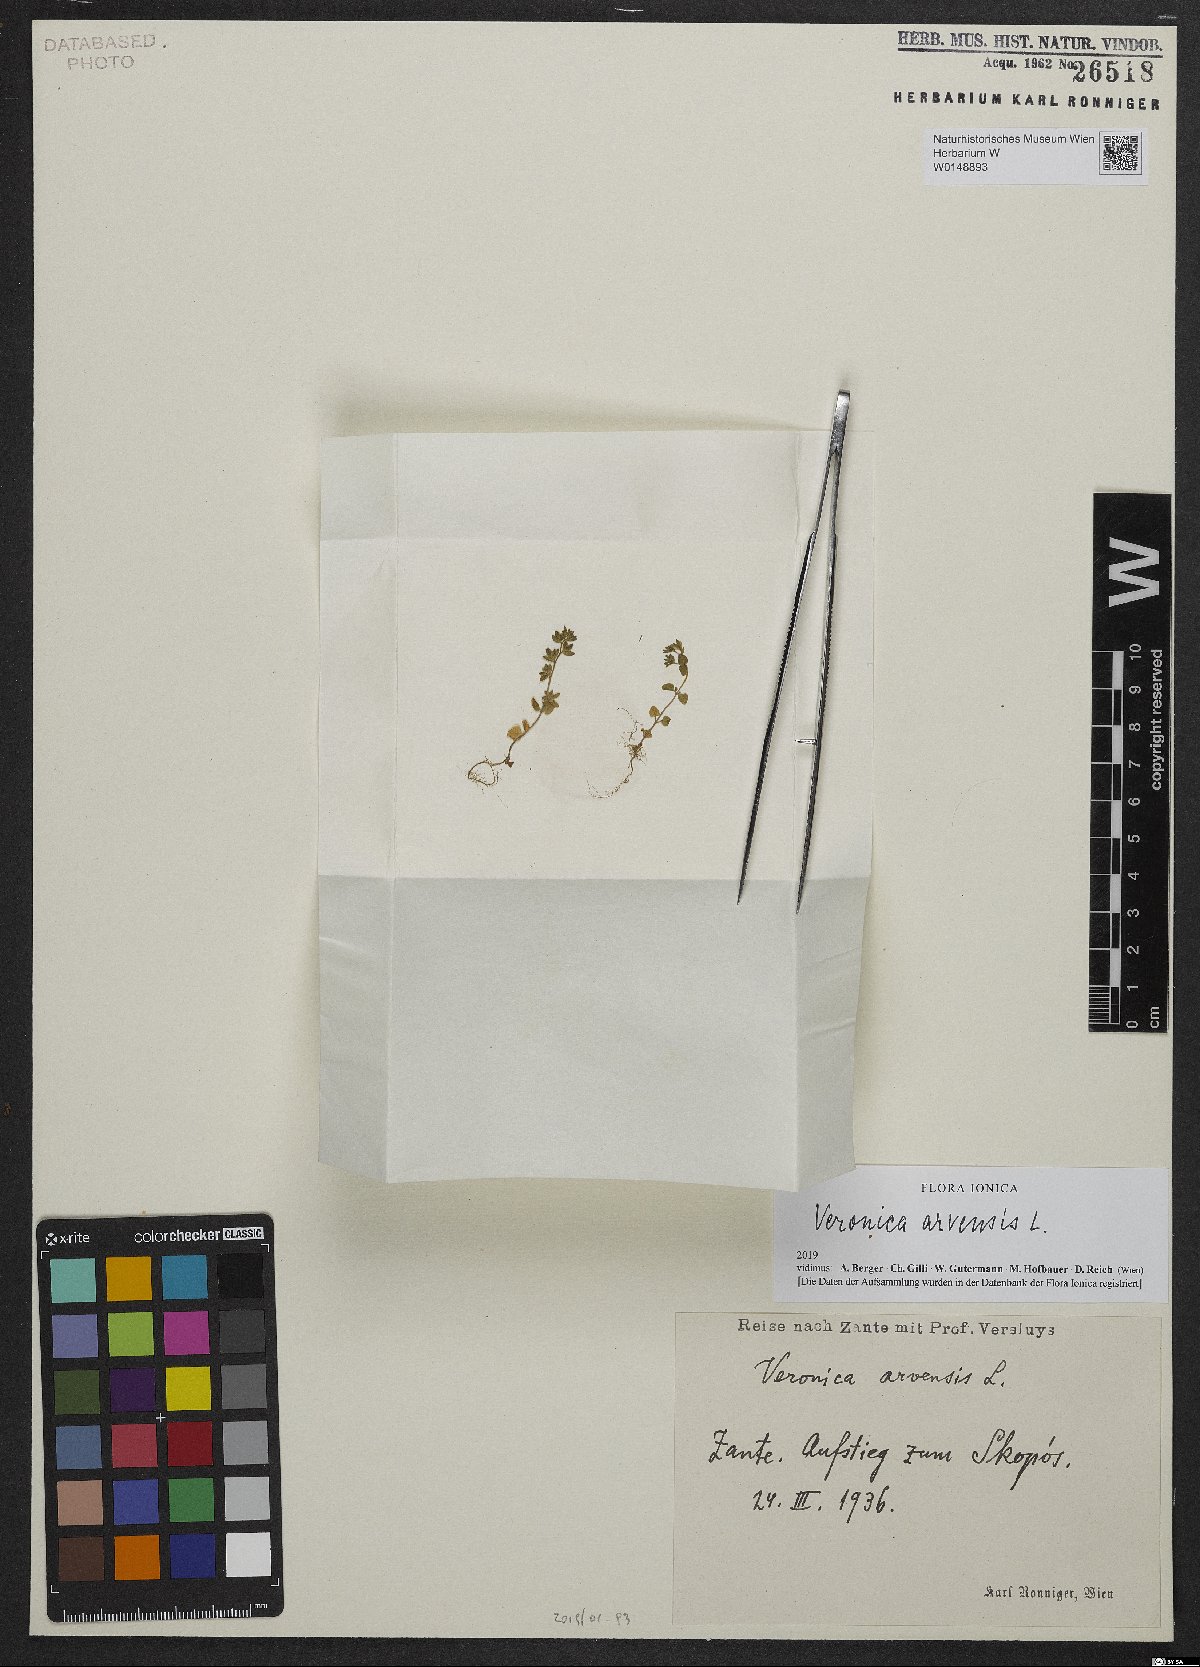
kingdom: Plantae
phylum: Tracheophyta
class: Magnoliopsida
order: Lamiales
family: Plantaginaceae
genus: Veronica
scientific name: Veronica arvensis
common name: Corn speedwell
